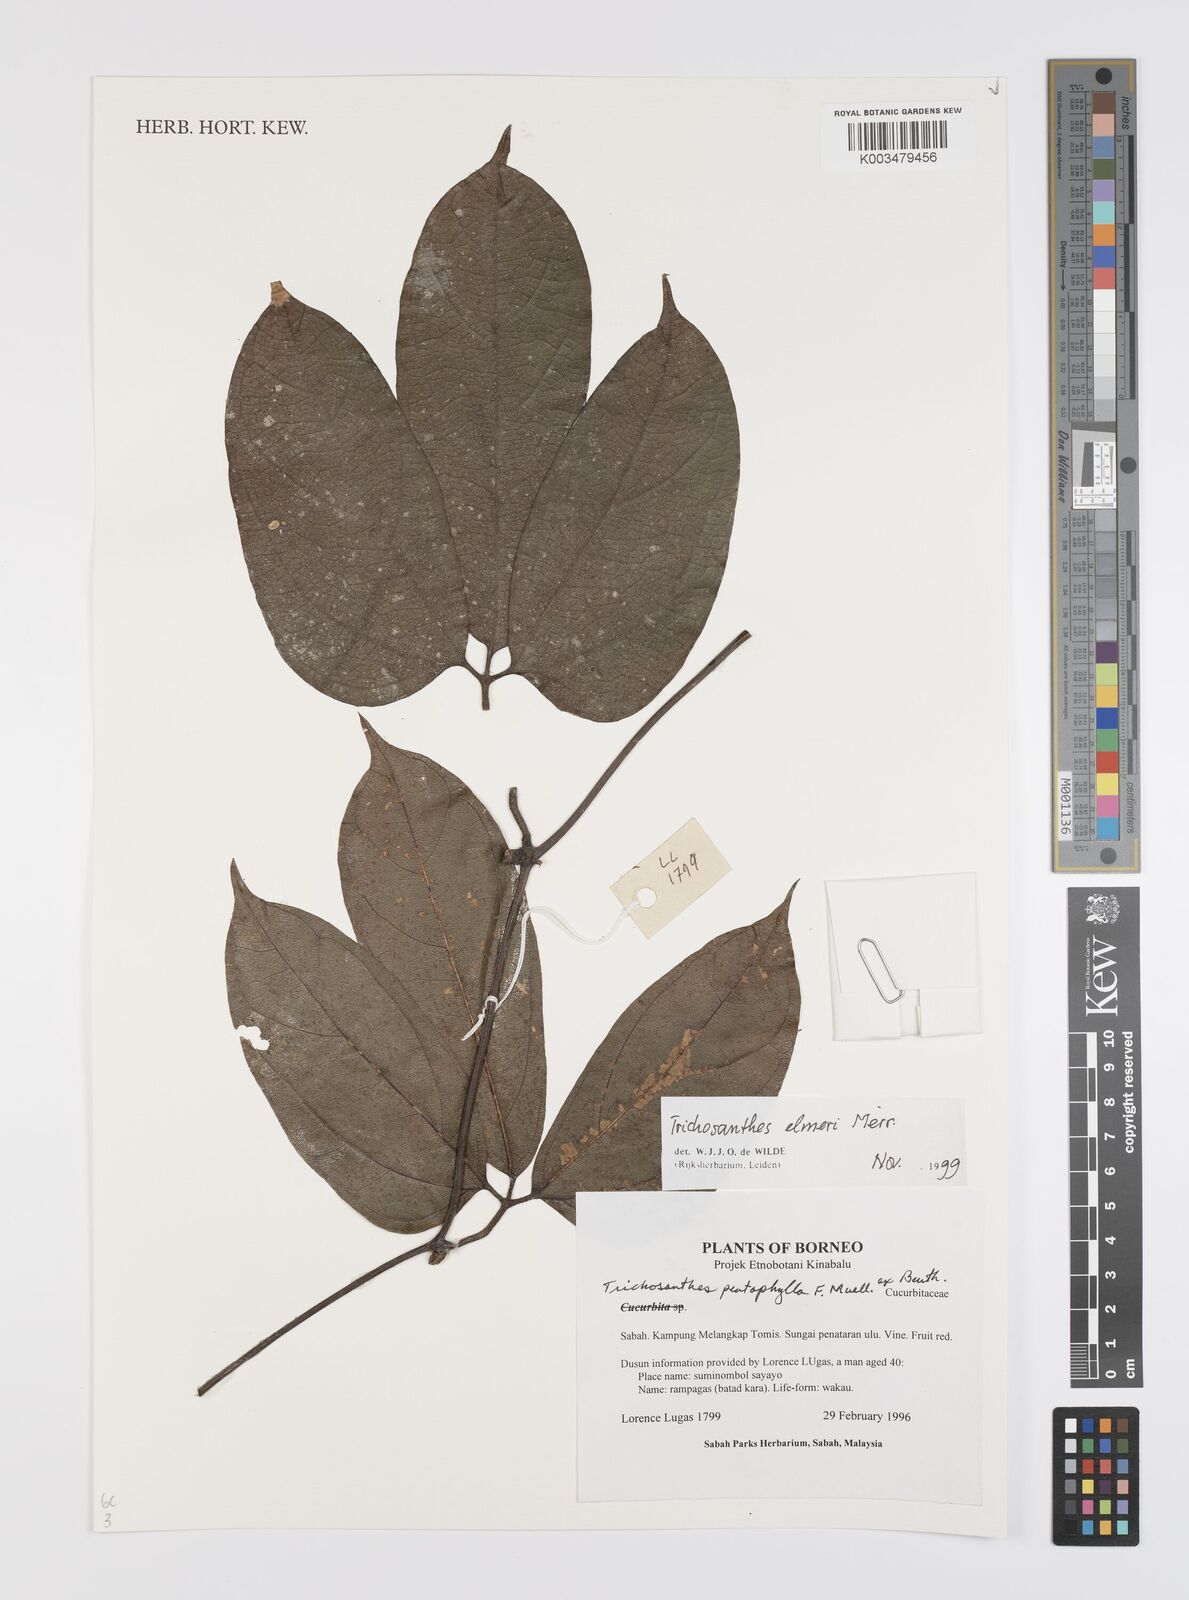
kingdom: Plantae
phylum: Tracheophyta
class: Magnoliopsida
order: Cucurbitales
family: Cucurbitaceae
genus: Trichosanthes
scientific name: Trichosanthes elmeri
